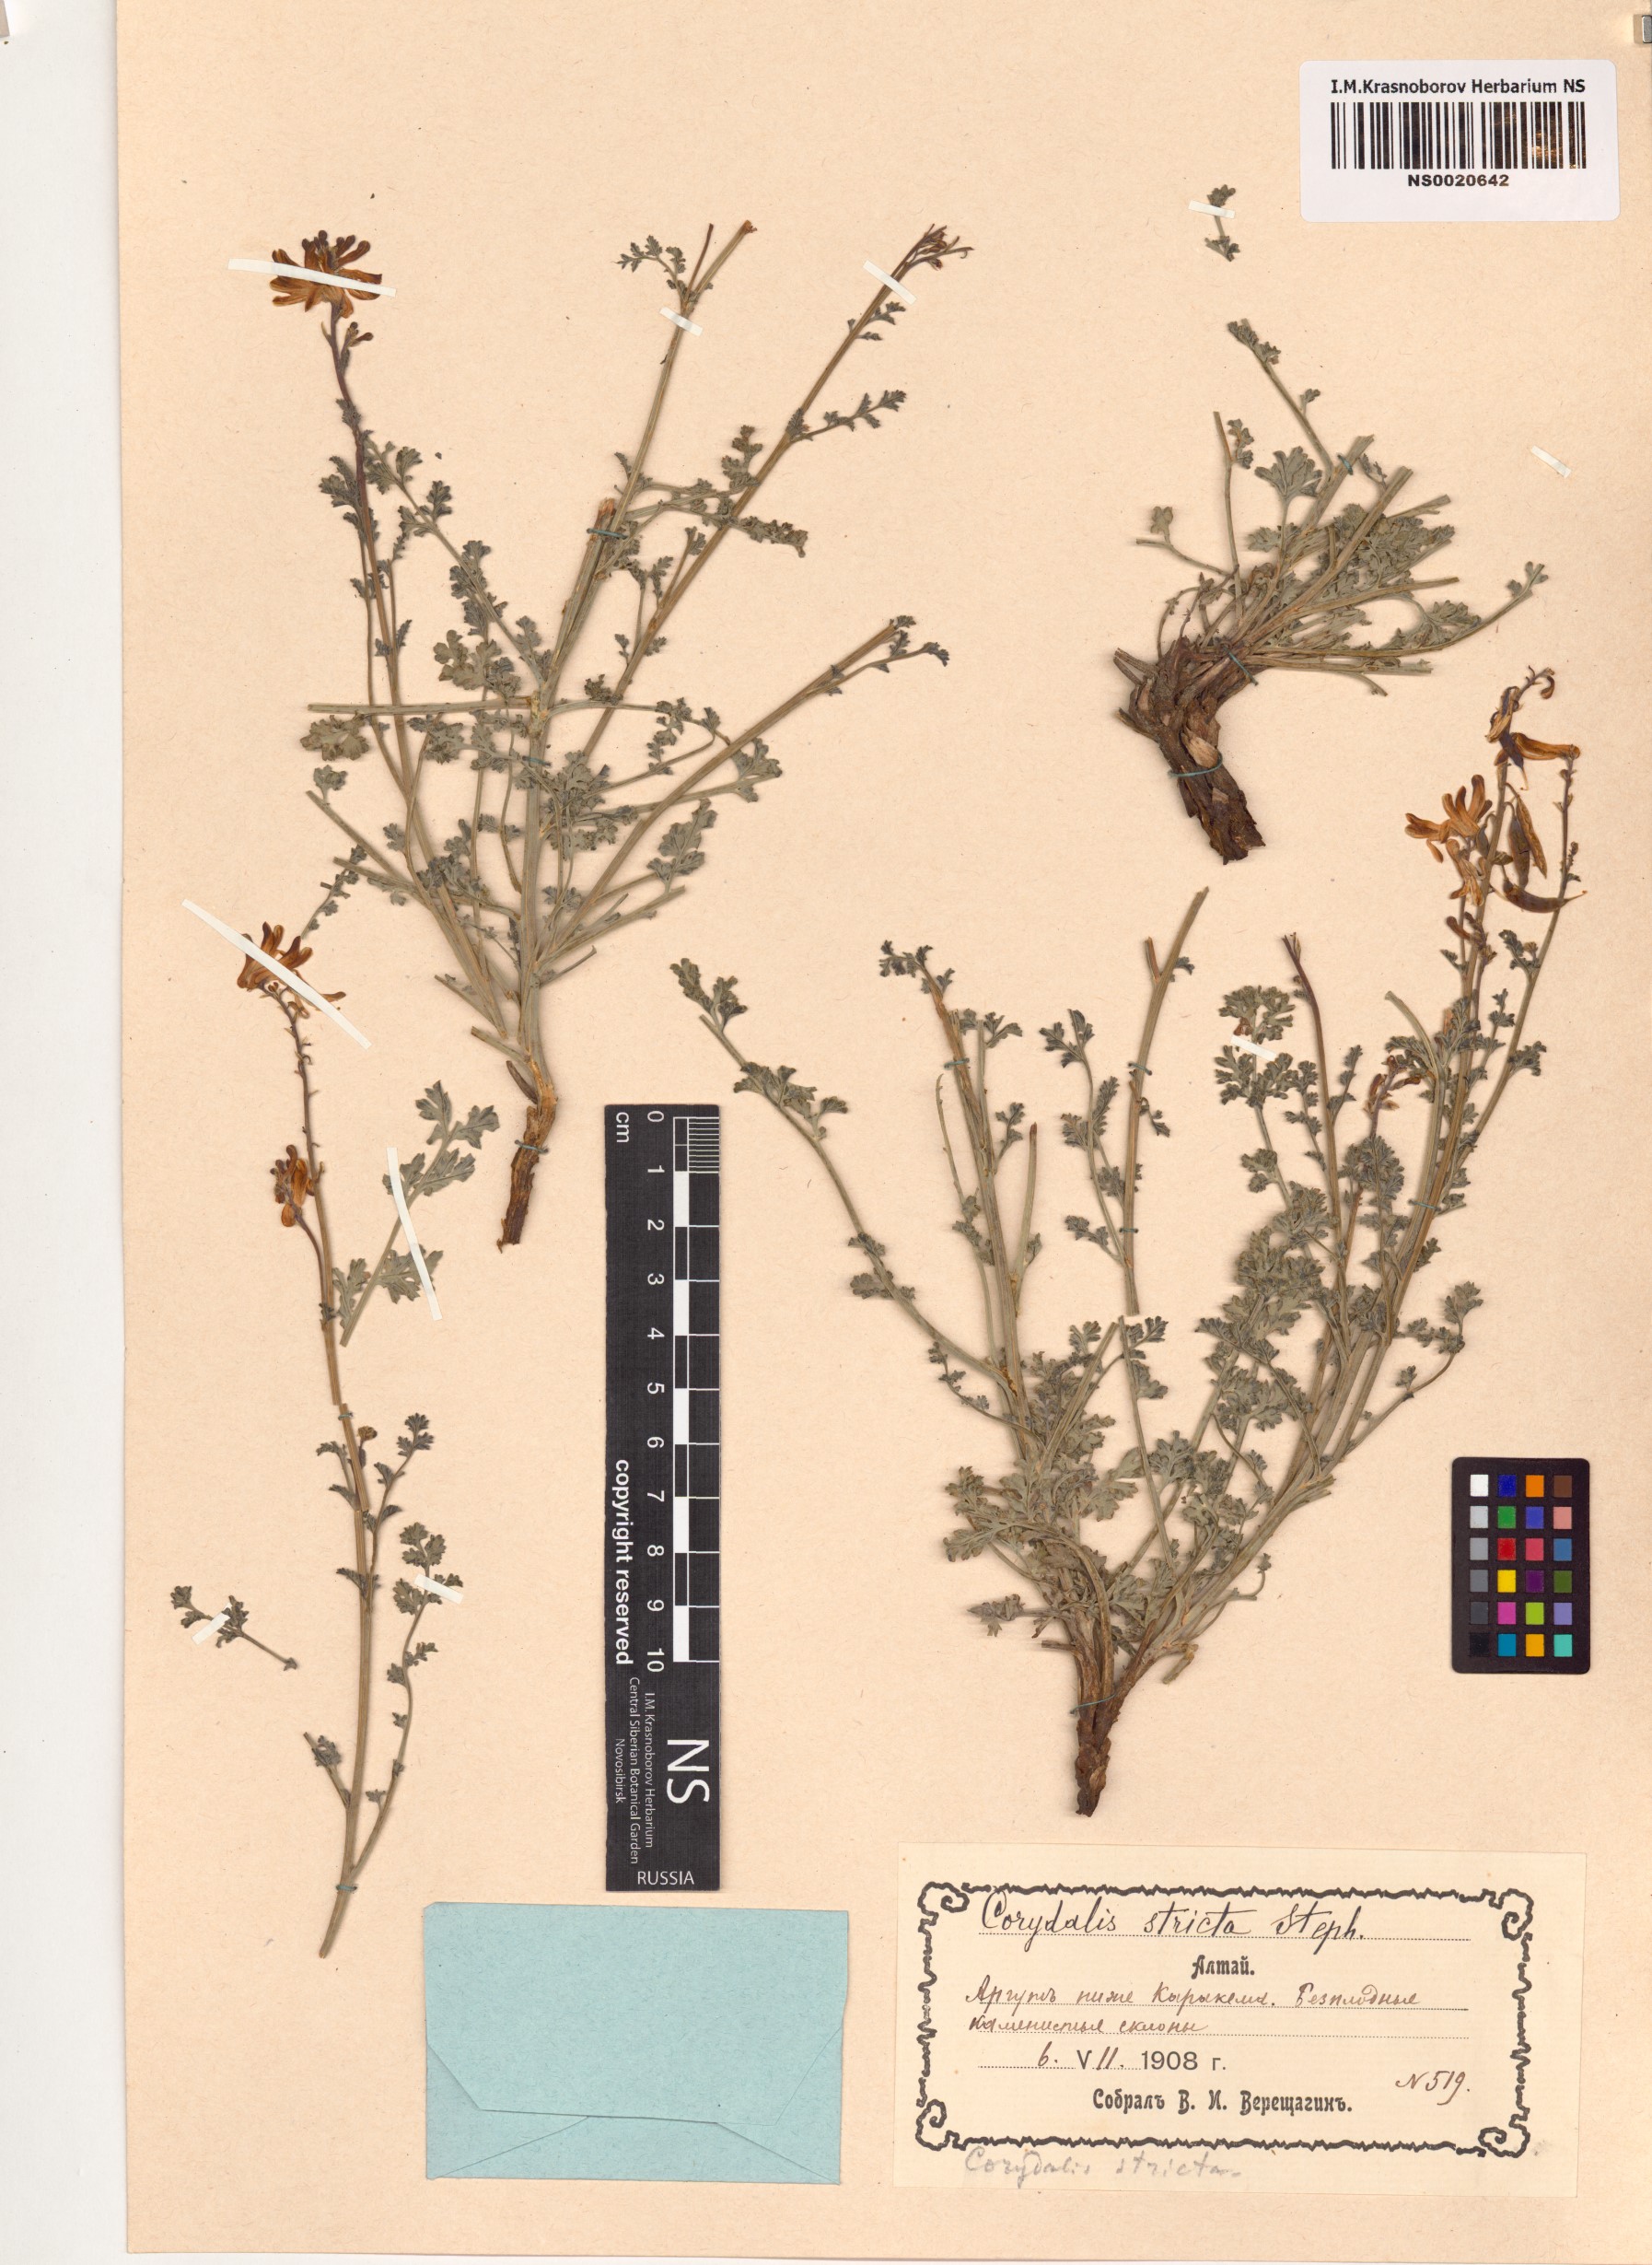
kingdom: Plantae
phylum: Tracheophyta
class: Magnoliopsida
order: Ranunculales
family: Papaveraceae
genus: Corydalis
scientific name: Corydalis stricta
